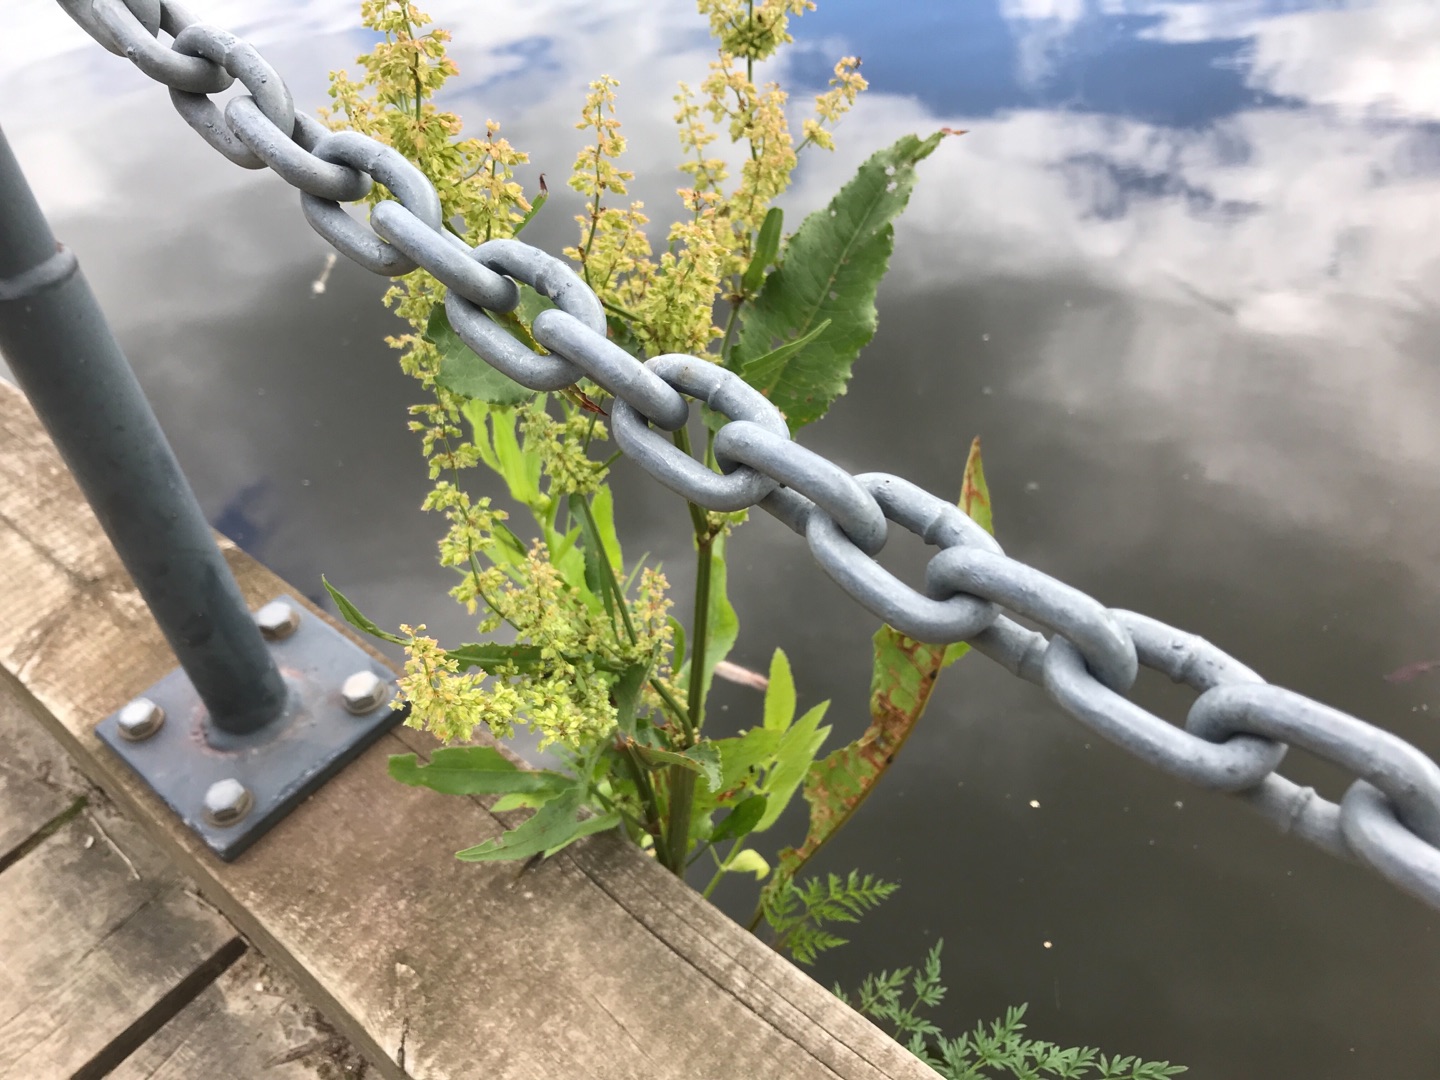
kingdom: Plantae
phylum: Tracheophyta
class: Magnoliopsida
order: Caryophyllales
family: Polygonaceae
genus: Rumex
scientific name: Rumex hydrolapathum
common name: Vand-skræppe
